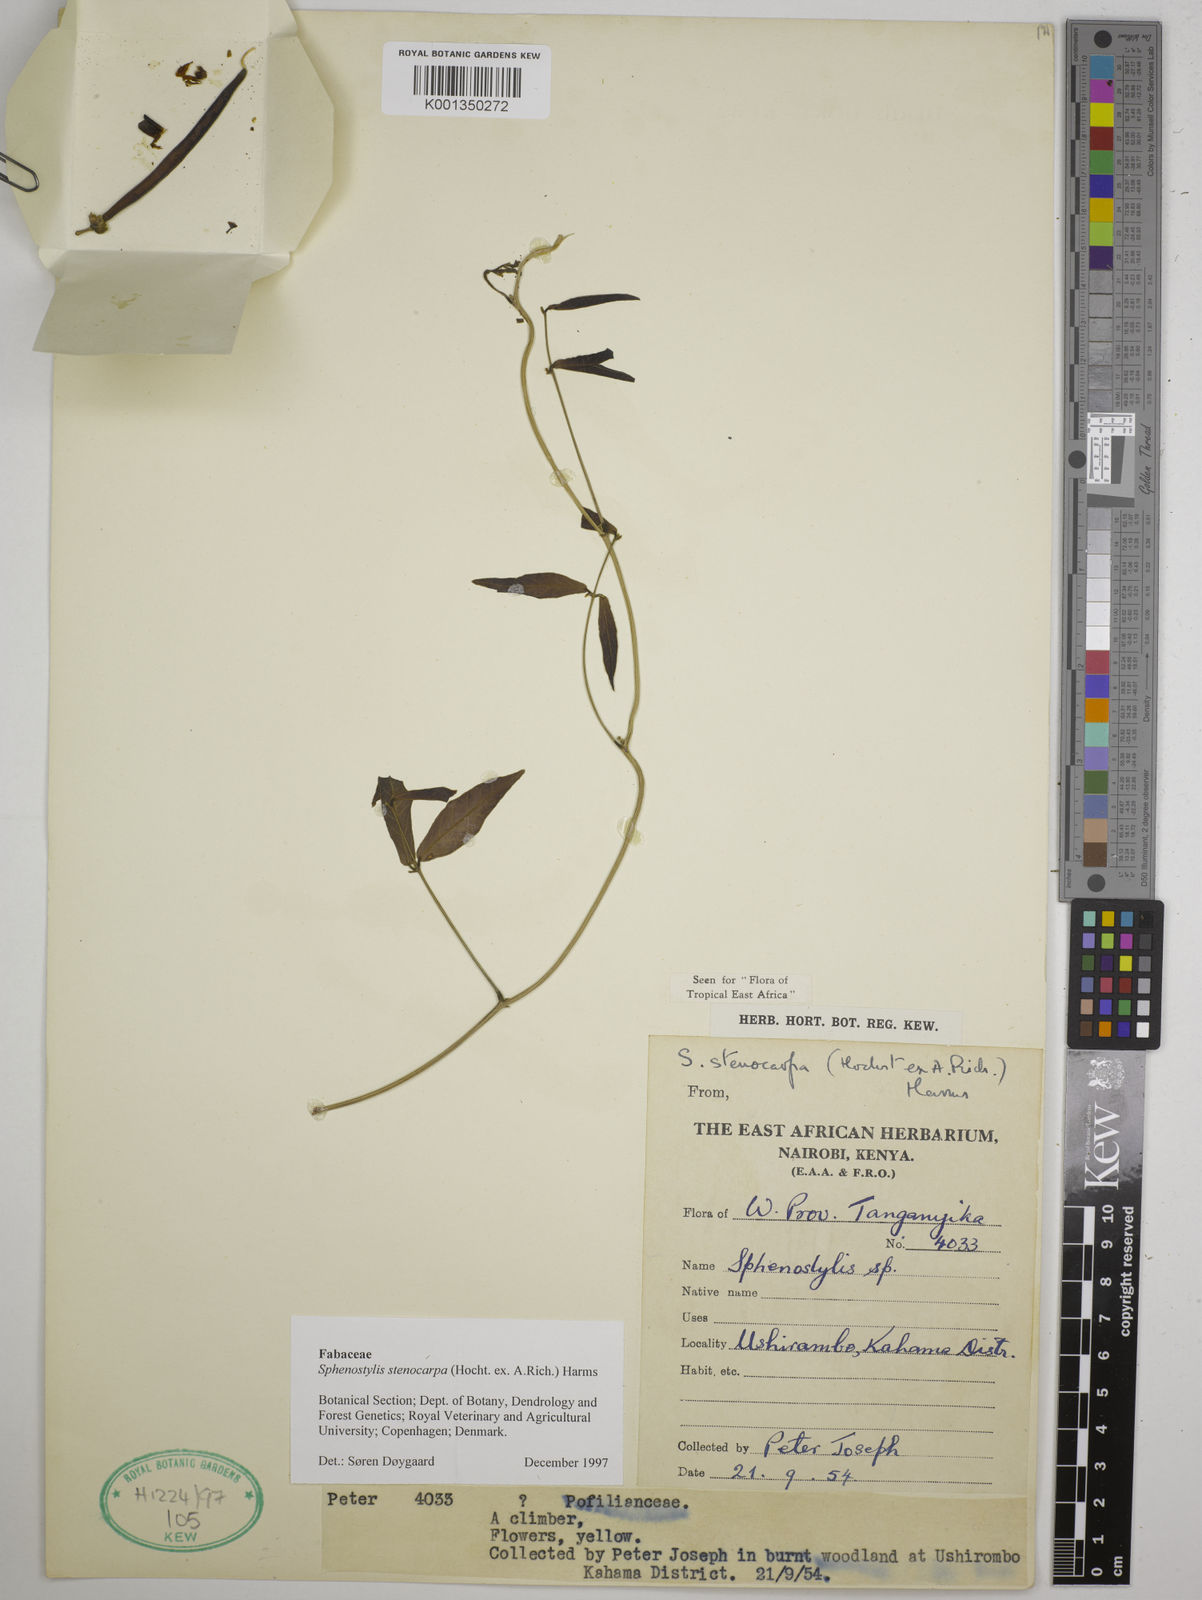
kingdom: Plantae
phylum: Tracheophyta
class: Magnoliopsida
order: Fabales
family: Fabaceae
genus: Sphenostylis
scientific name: Sphenostylis stenocarpa
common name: Yam-pea
